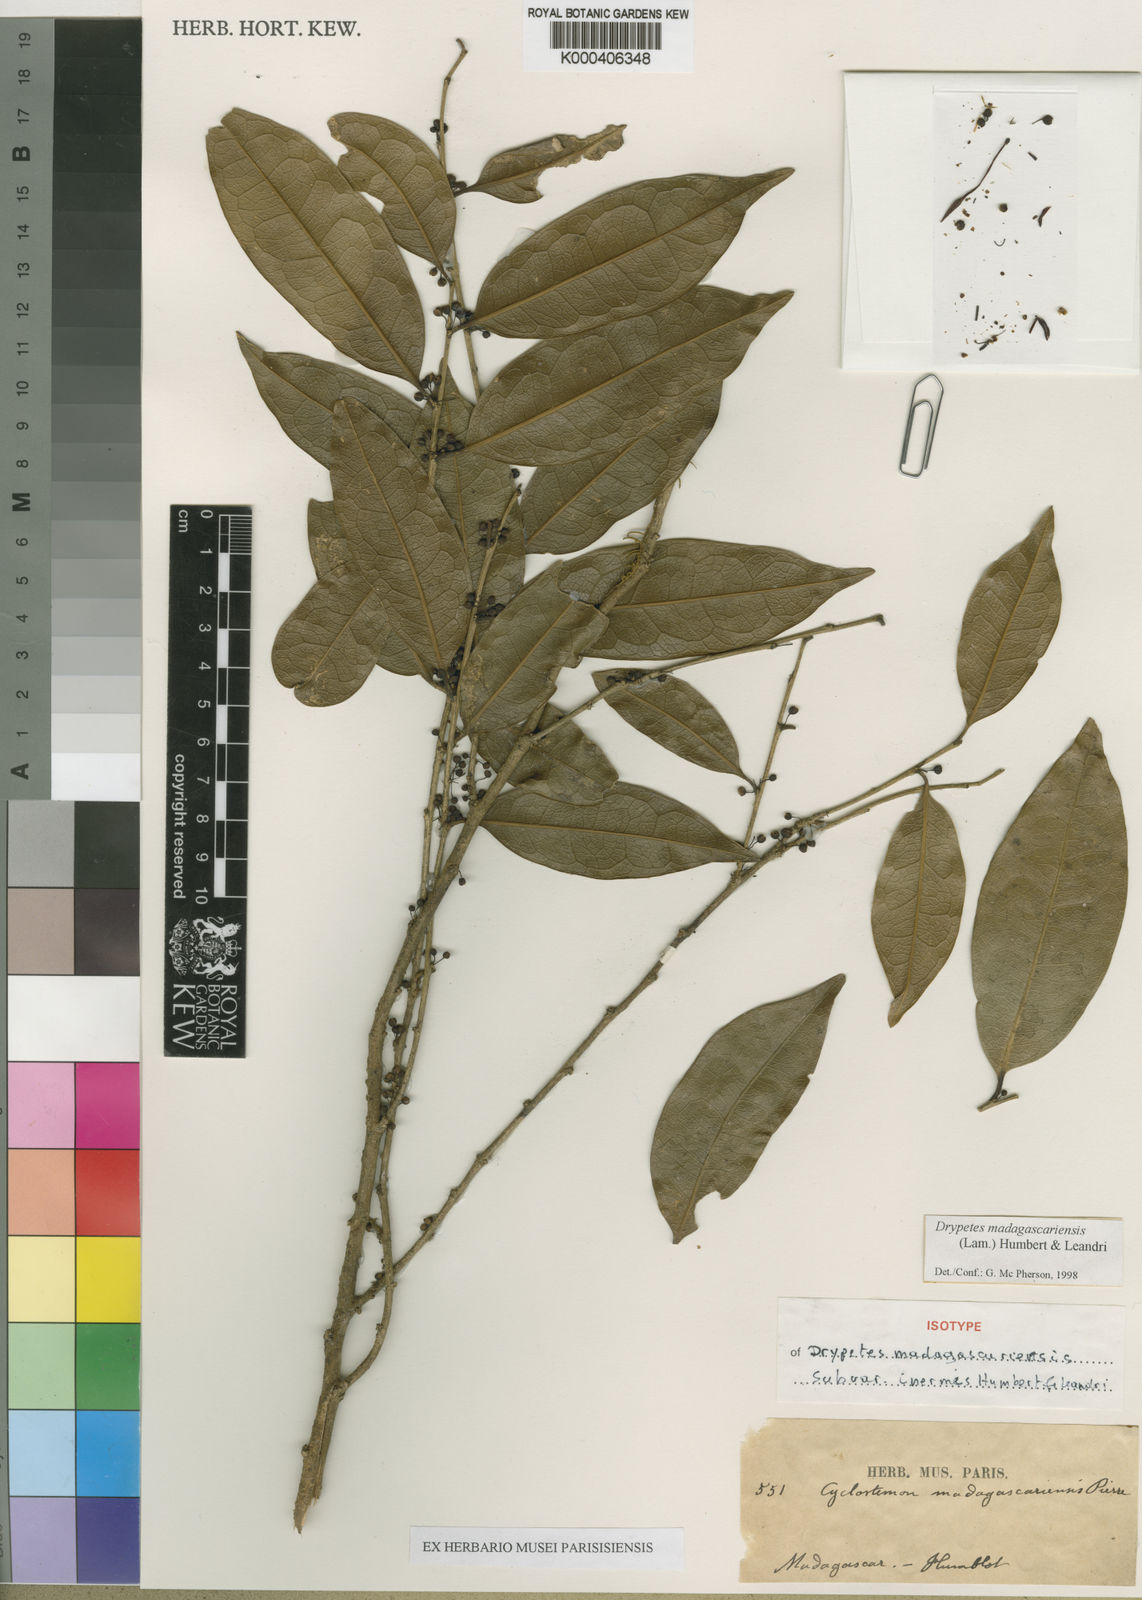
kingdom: Plantae
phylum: Tracheophyta
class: Magnoliopsida
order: Malpighiales
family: Putranjivaceae
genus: Drypetes
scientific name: Drypetes
